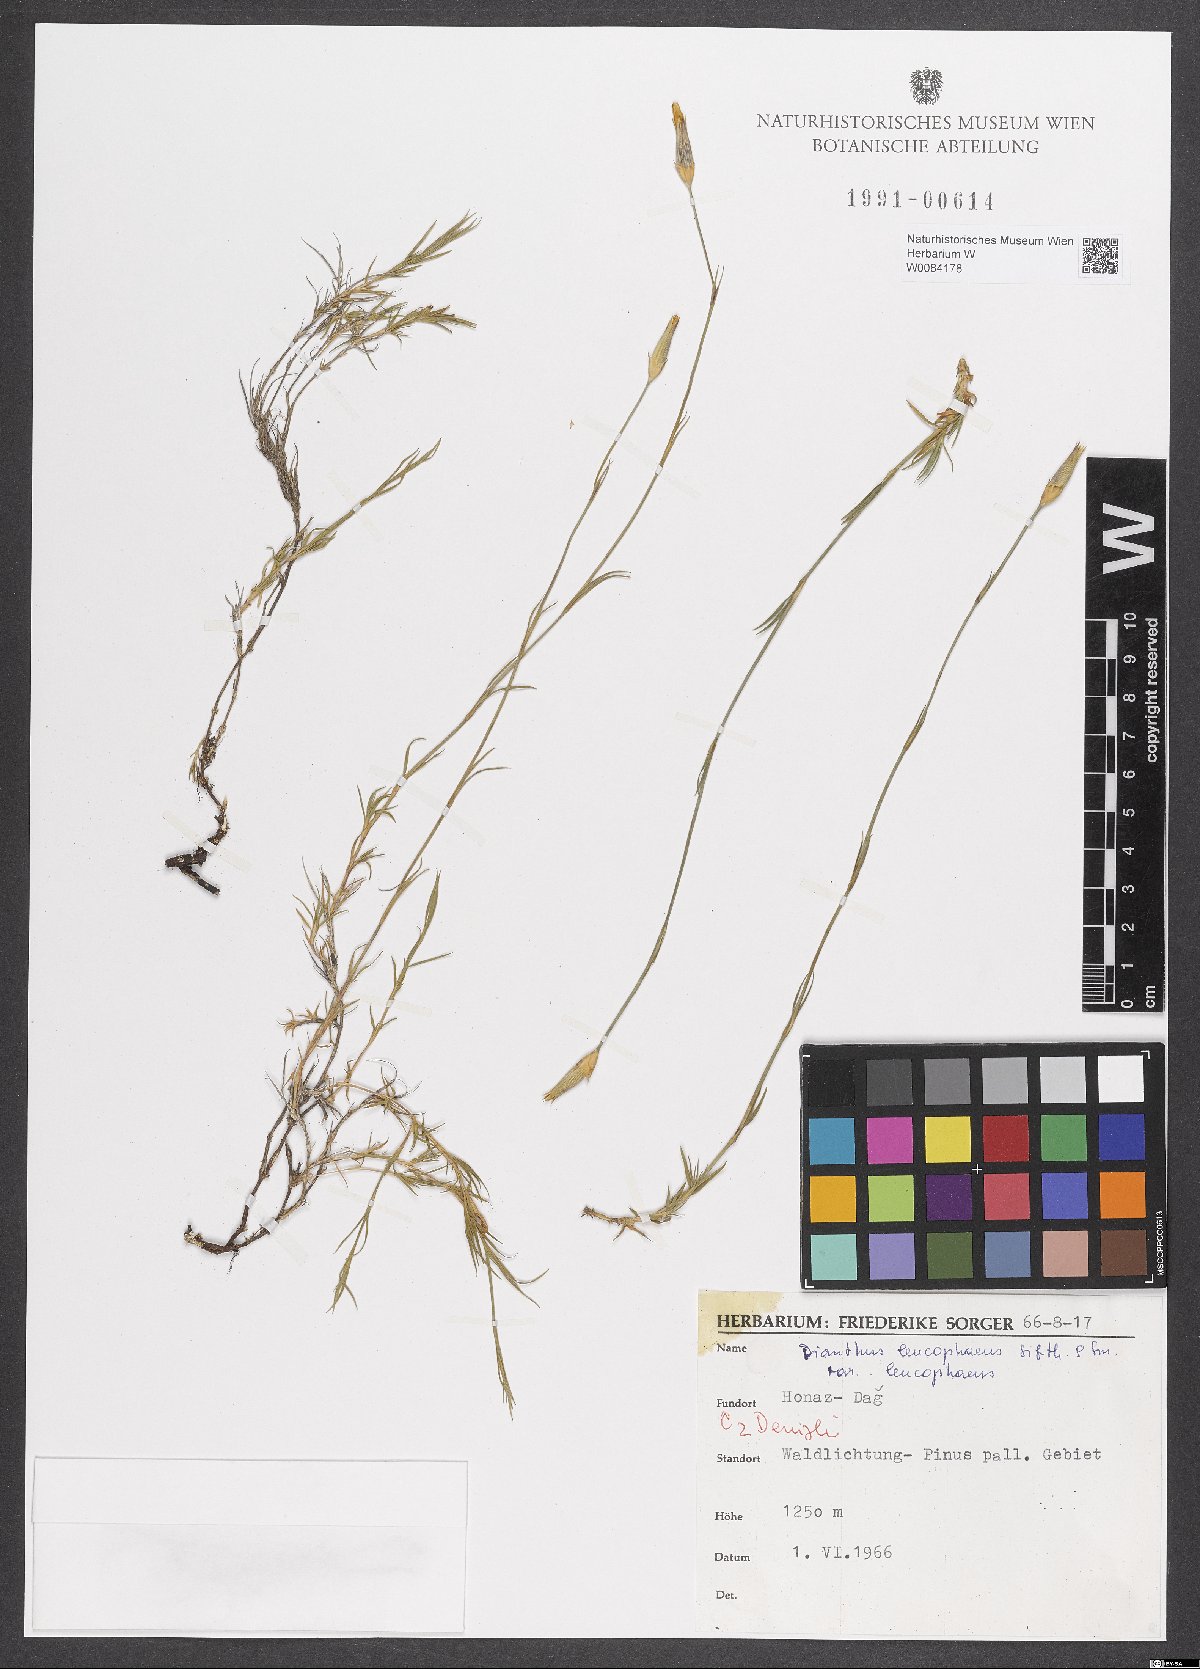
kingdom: Plantae
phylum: Tracheophyta
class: Magnoliopsida
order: Caryophyllales
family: Caryophyllaceae
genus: Dianthus
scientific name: Dianthus leucophaeus
